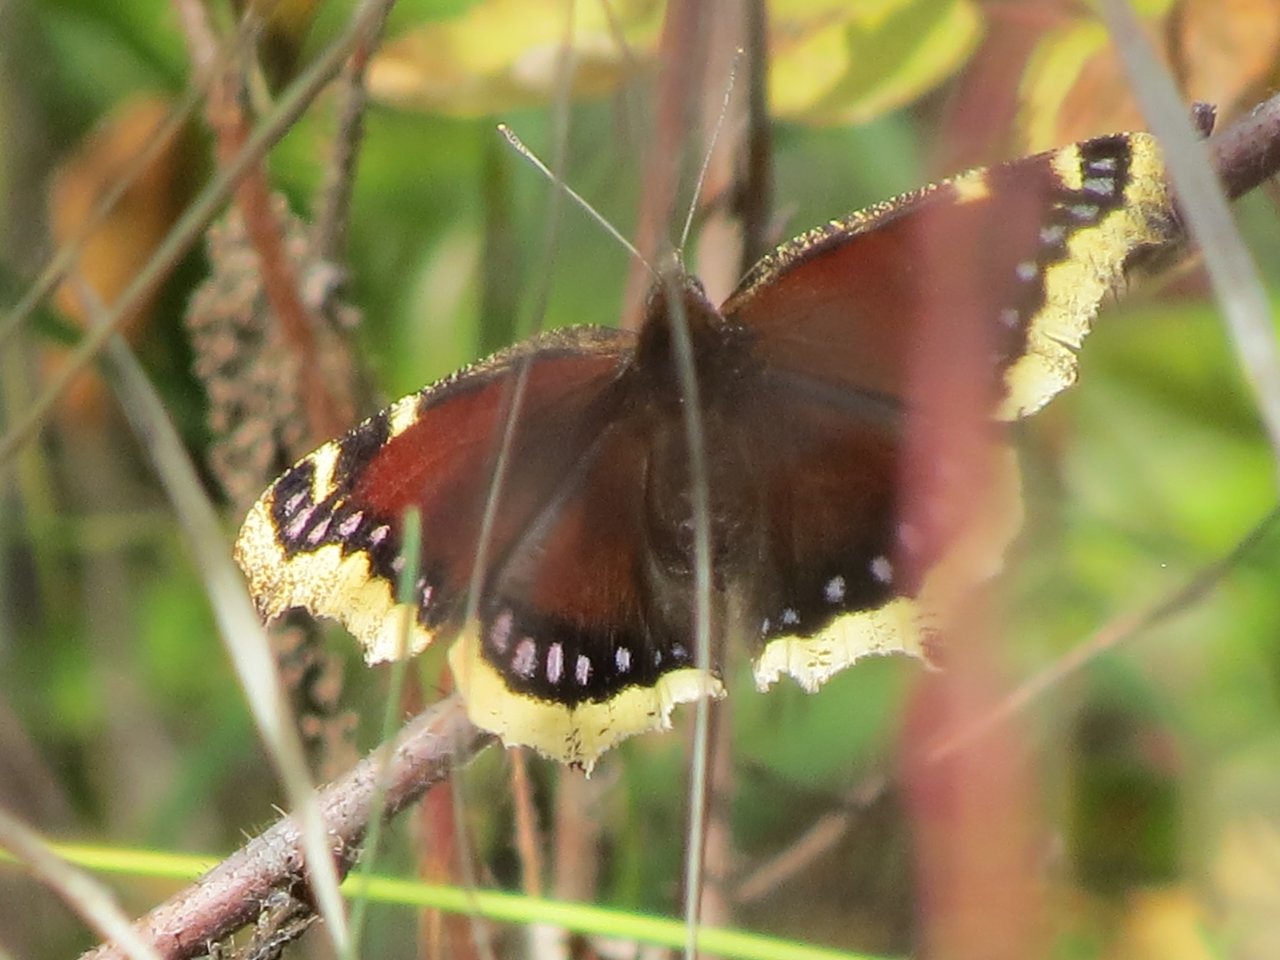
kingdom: Animalia
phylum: Arthropoda
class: Insecta
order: Lepidoptera
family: Nymphalidae
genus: Nymphalis
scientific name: Nymphalis antiopa
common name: Mourning Cloak
